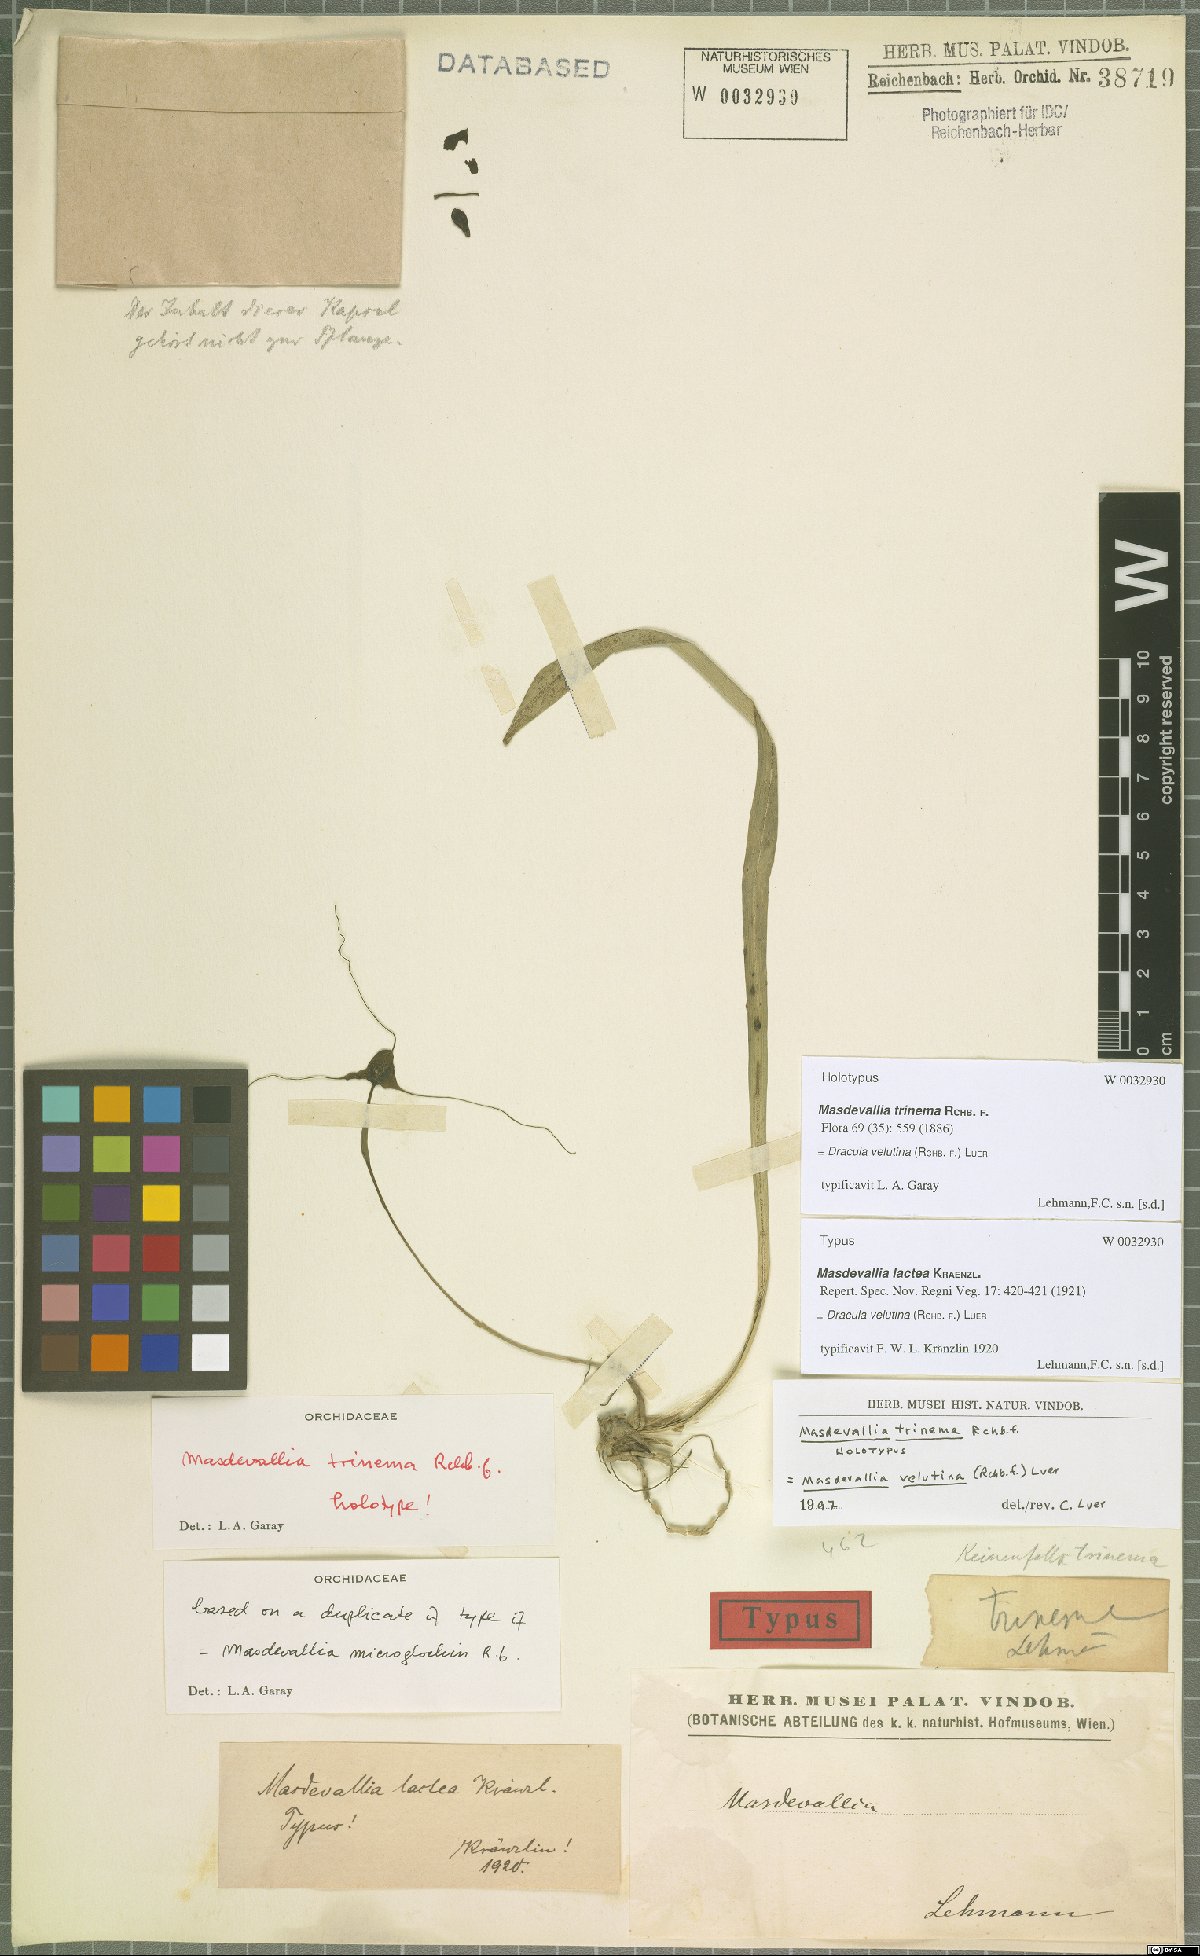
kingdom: Plantae
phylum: Tracheophyta
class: Liliopsida
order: Asparagales
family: Orchidaceae
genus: Dracula
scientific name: Dracula velutina
